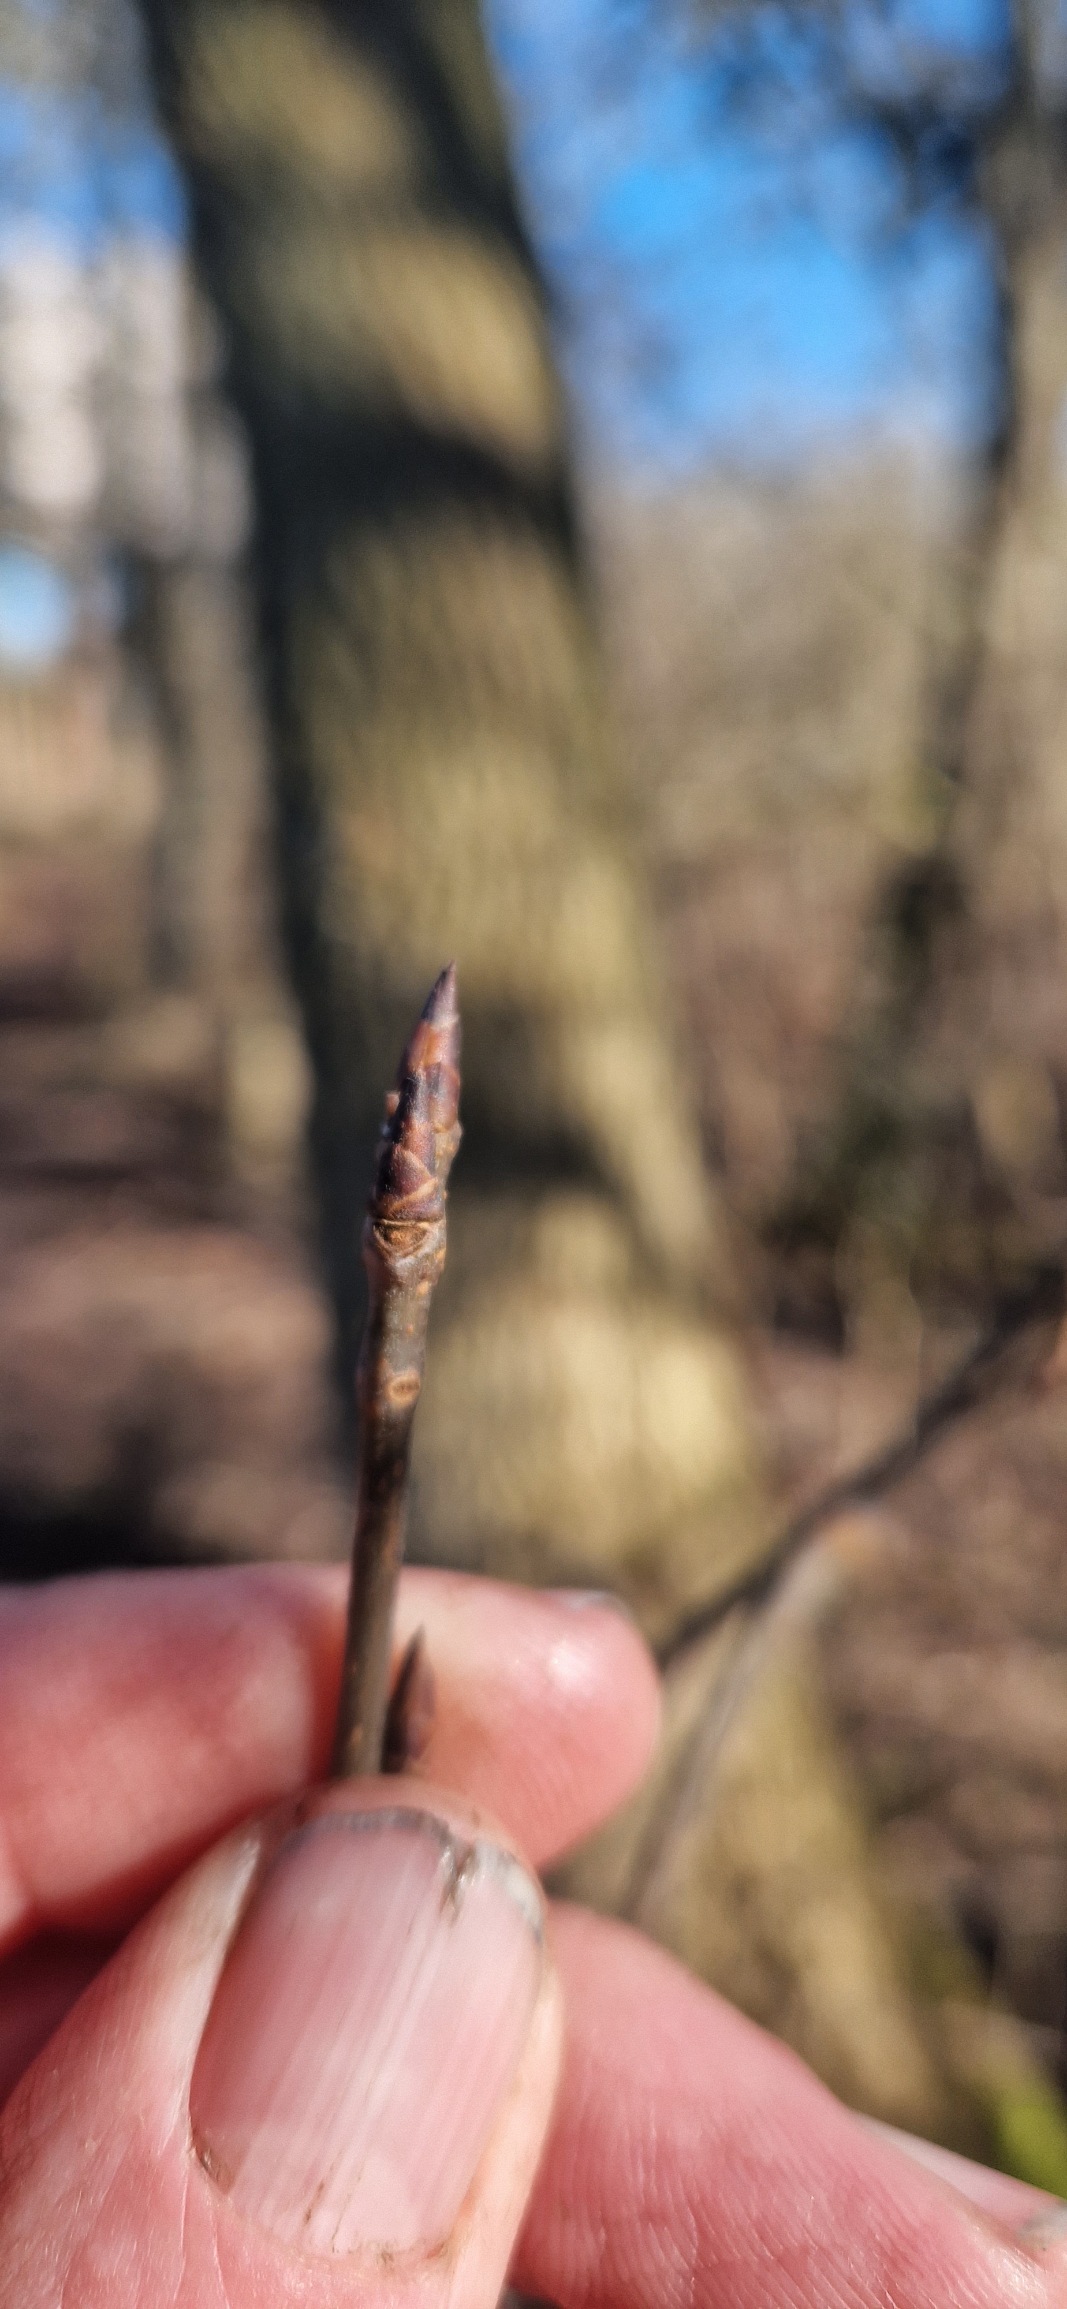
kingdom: Plantae
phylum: Tracheophyta
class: Magnoliopsida
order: Rosales
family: Rosaceae
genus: Prunus
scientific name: Prunus padus
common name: Almindelig hæg
